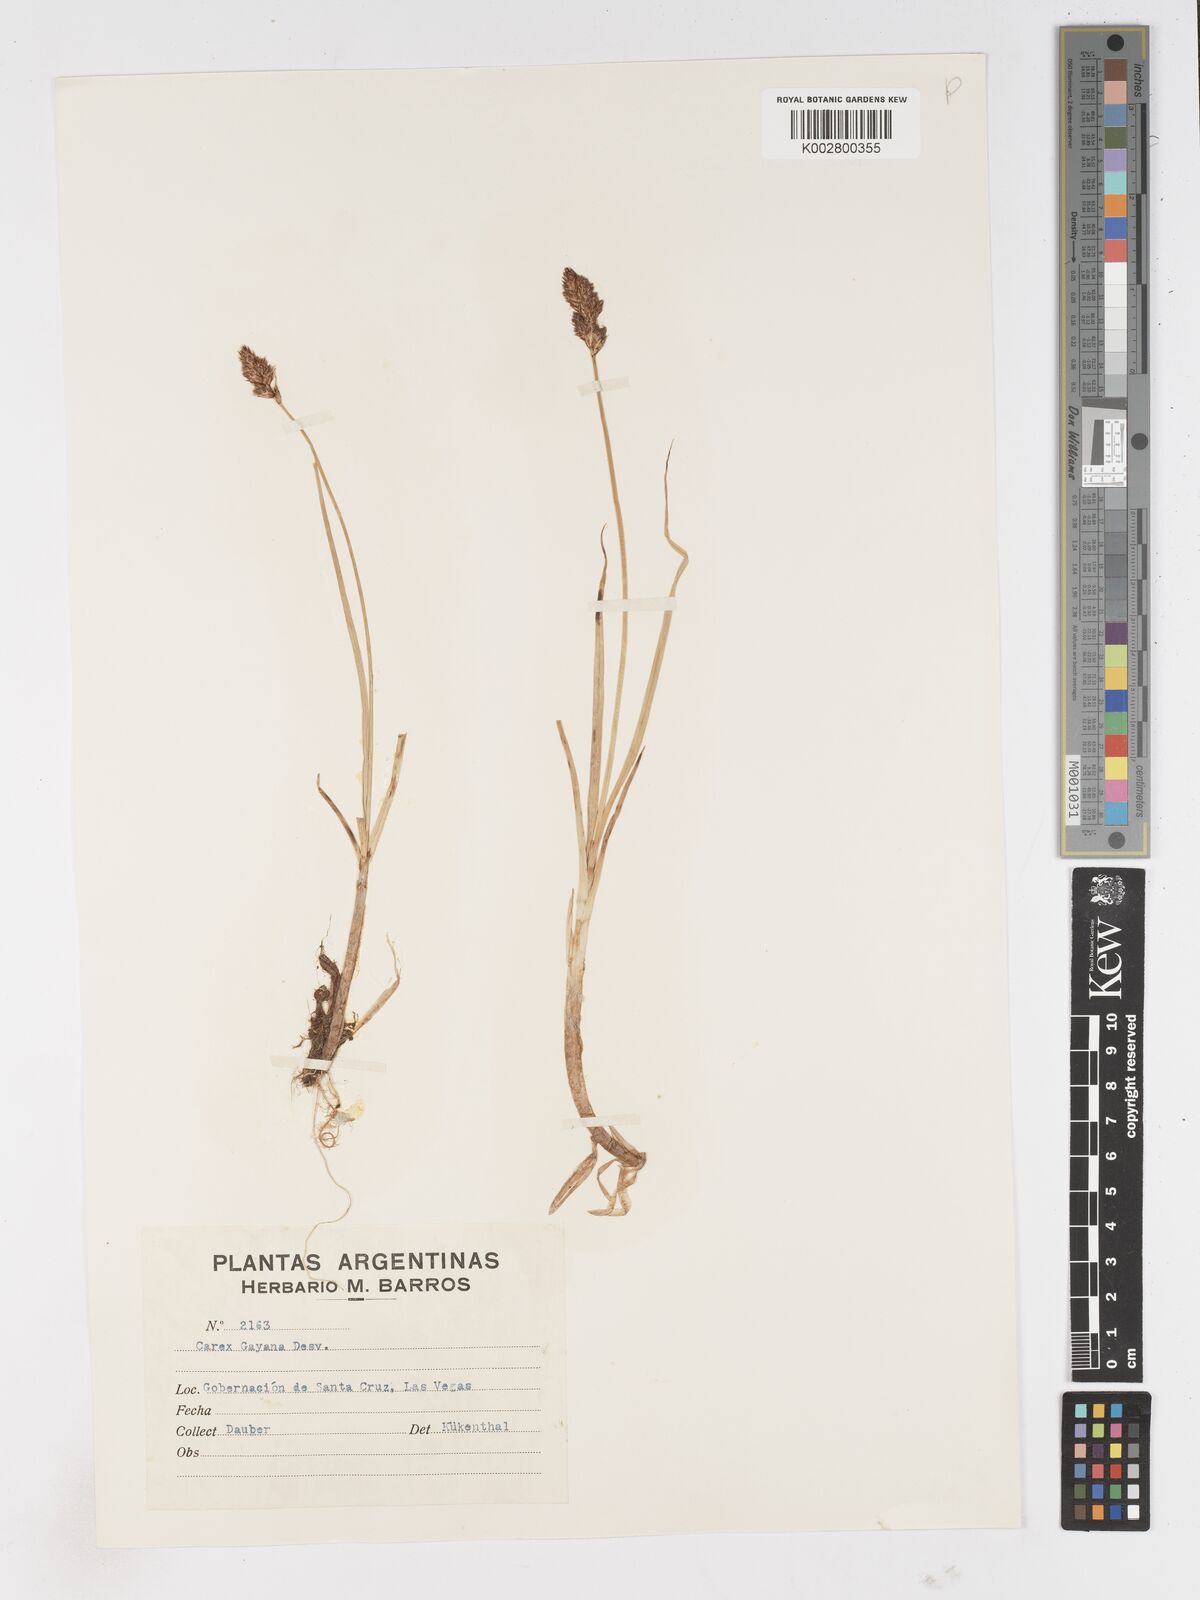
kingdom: Plantae
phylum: Tracheophyta
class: Liliopsida
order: Poales
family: Cyperaceae
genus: Carex
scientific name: Carex gayana
